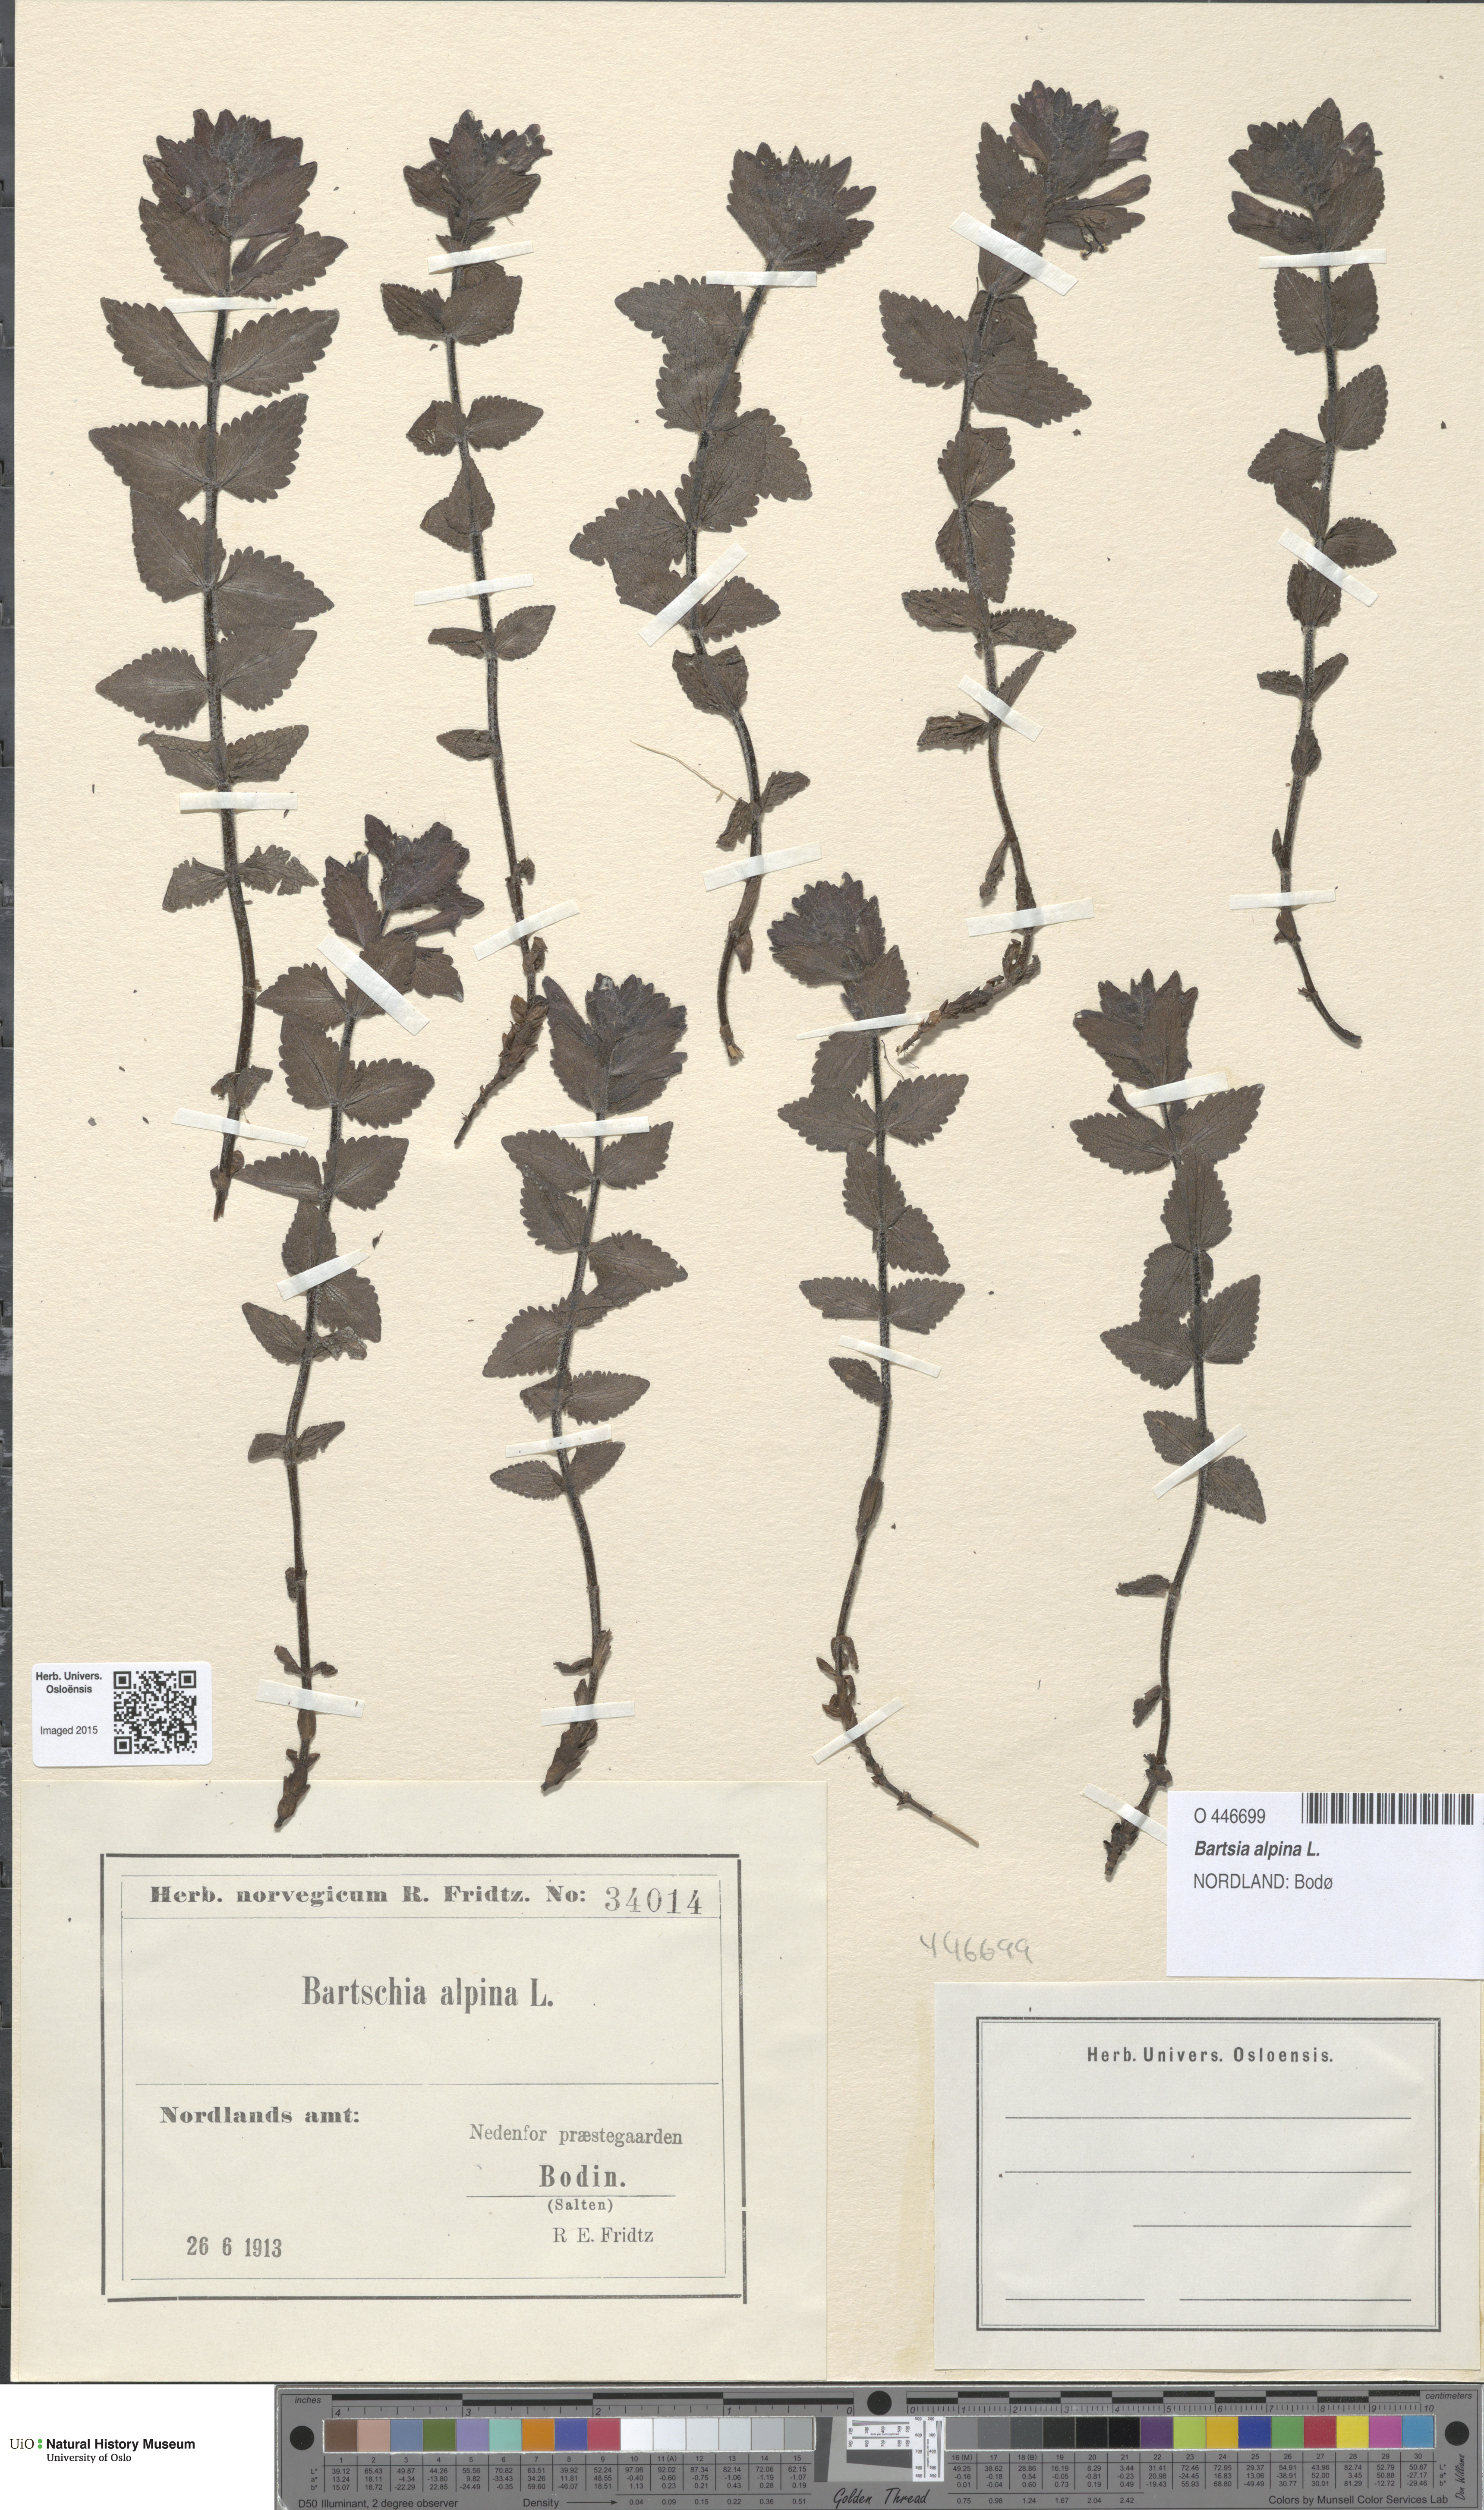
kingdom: Plantae
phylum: Tracheophyta
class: Magnoliopsida
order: Lamiales
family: Orobanchaceae
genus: Bartsia
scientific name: Bartsia alpina
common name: Alpine bartsia
